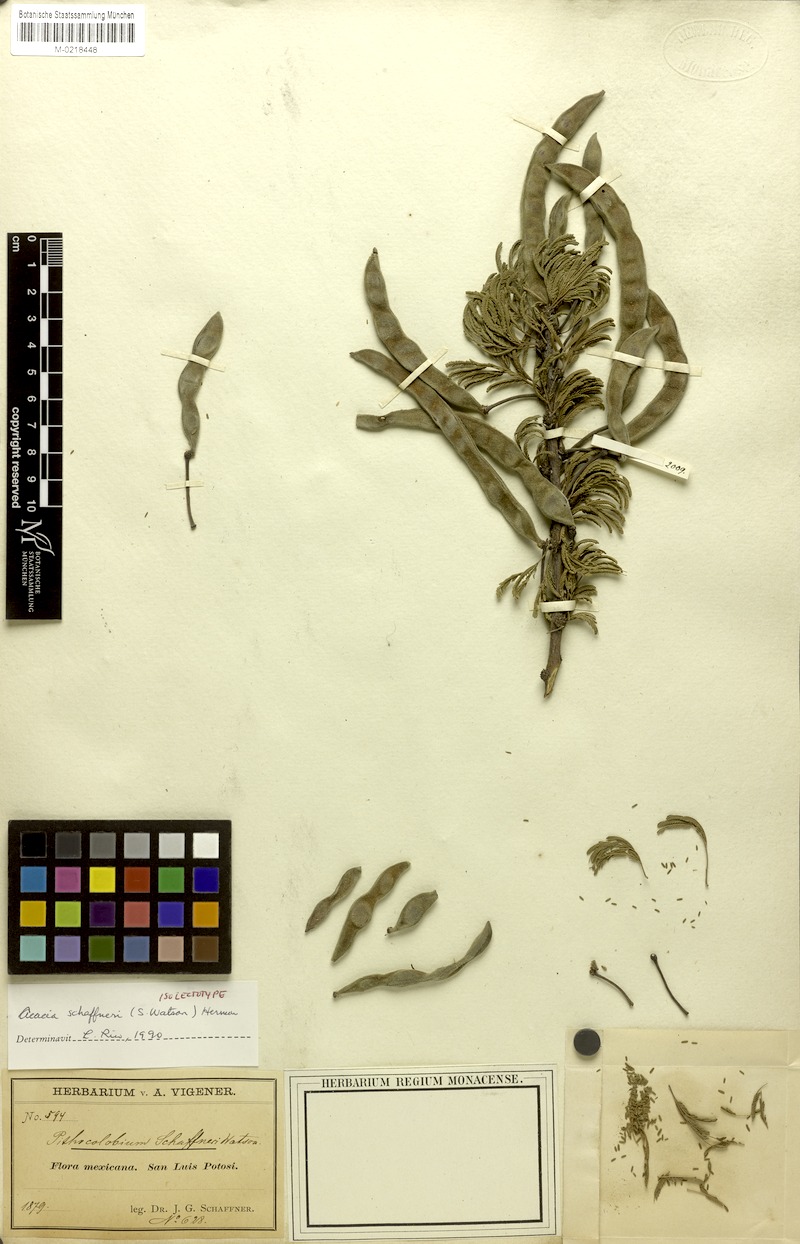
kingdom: Plantae
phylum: Tracheophyta
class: Magnoliopsida
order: Fabales
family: Fabaceae
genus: Vachellia
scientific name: Vachellia schaffneri
